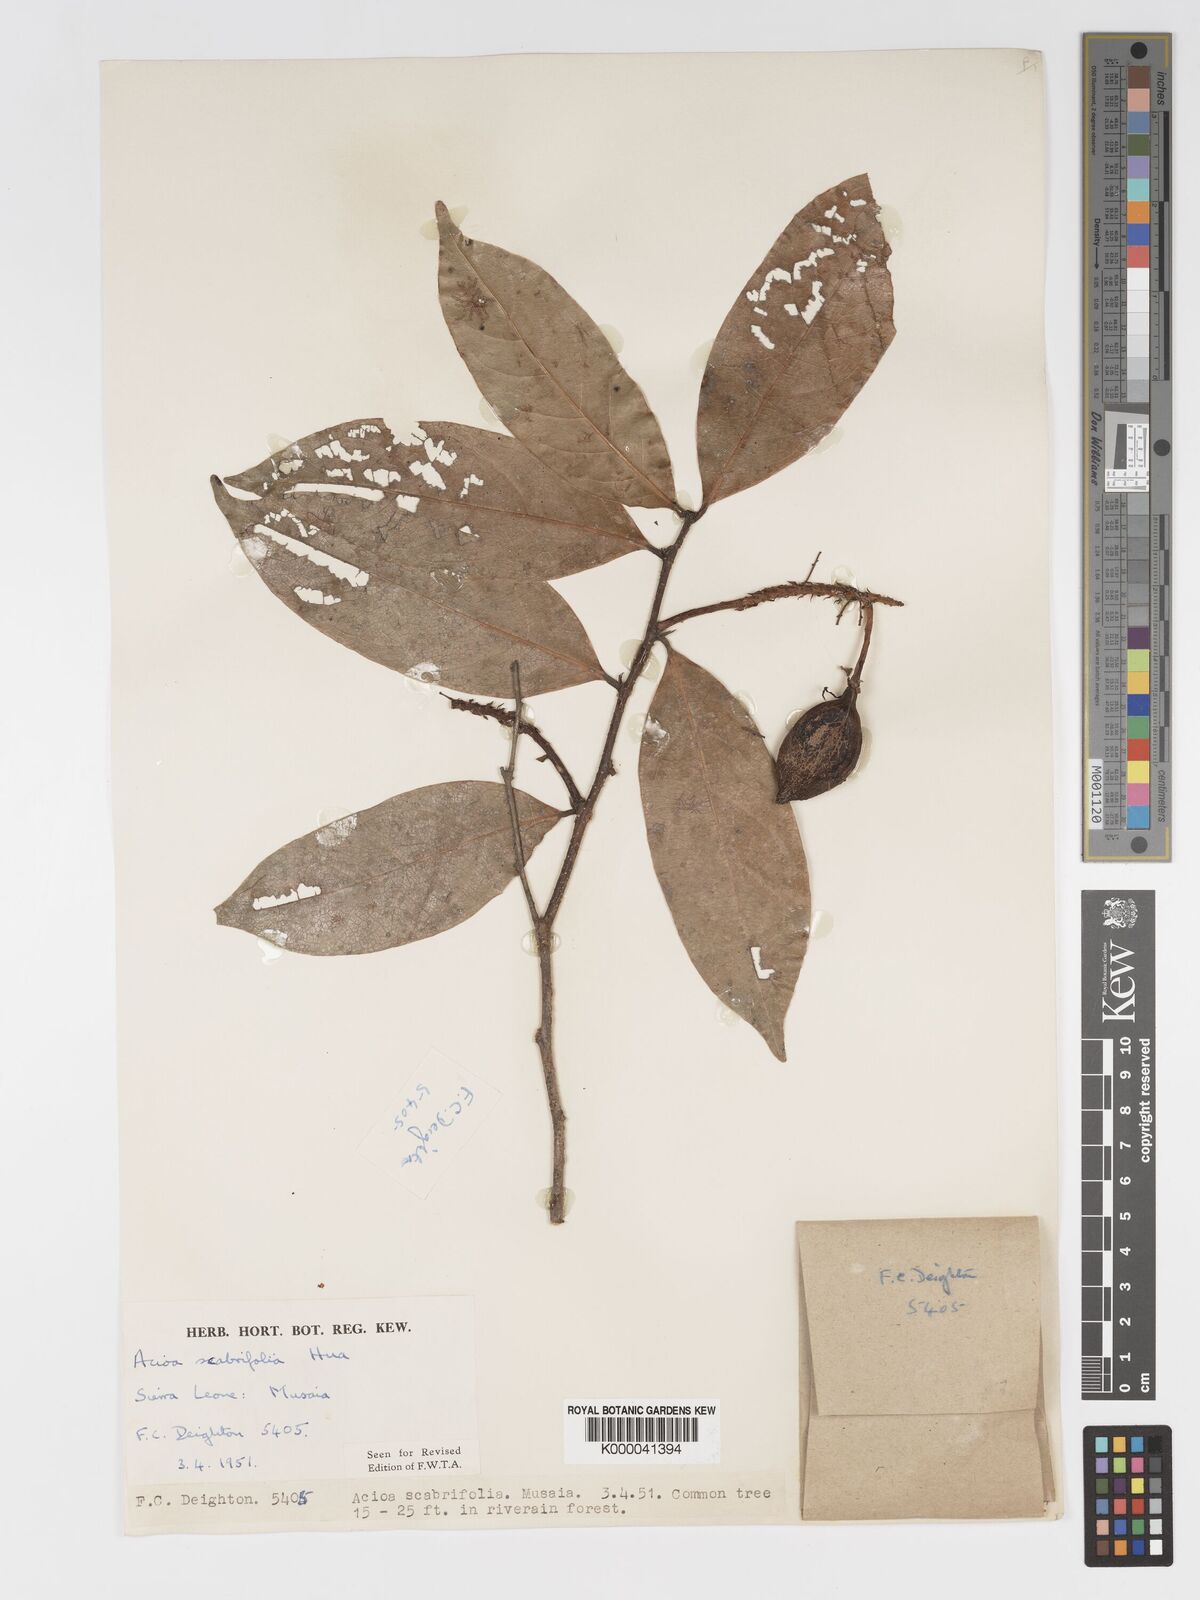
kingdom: Plantae
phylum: Tracheophyta
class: Magnoliopsida
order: Malpighiales
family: Chrysobalanaceae
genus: Dactyladenia
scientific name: Dactyladenia scabrifolia
